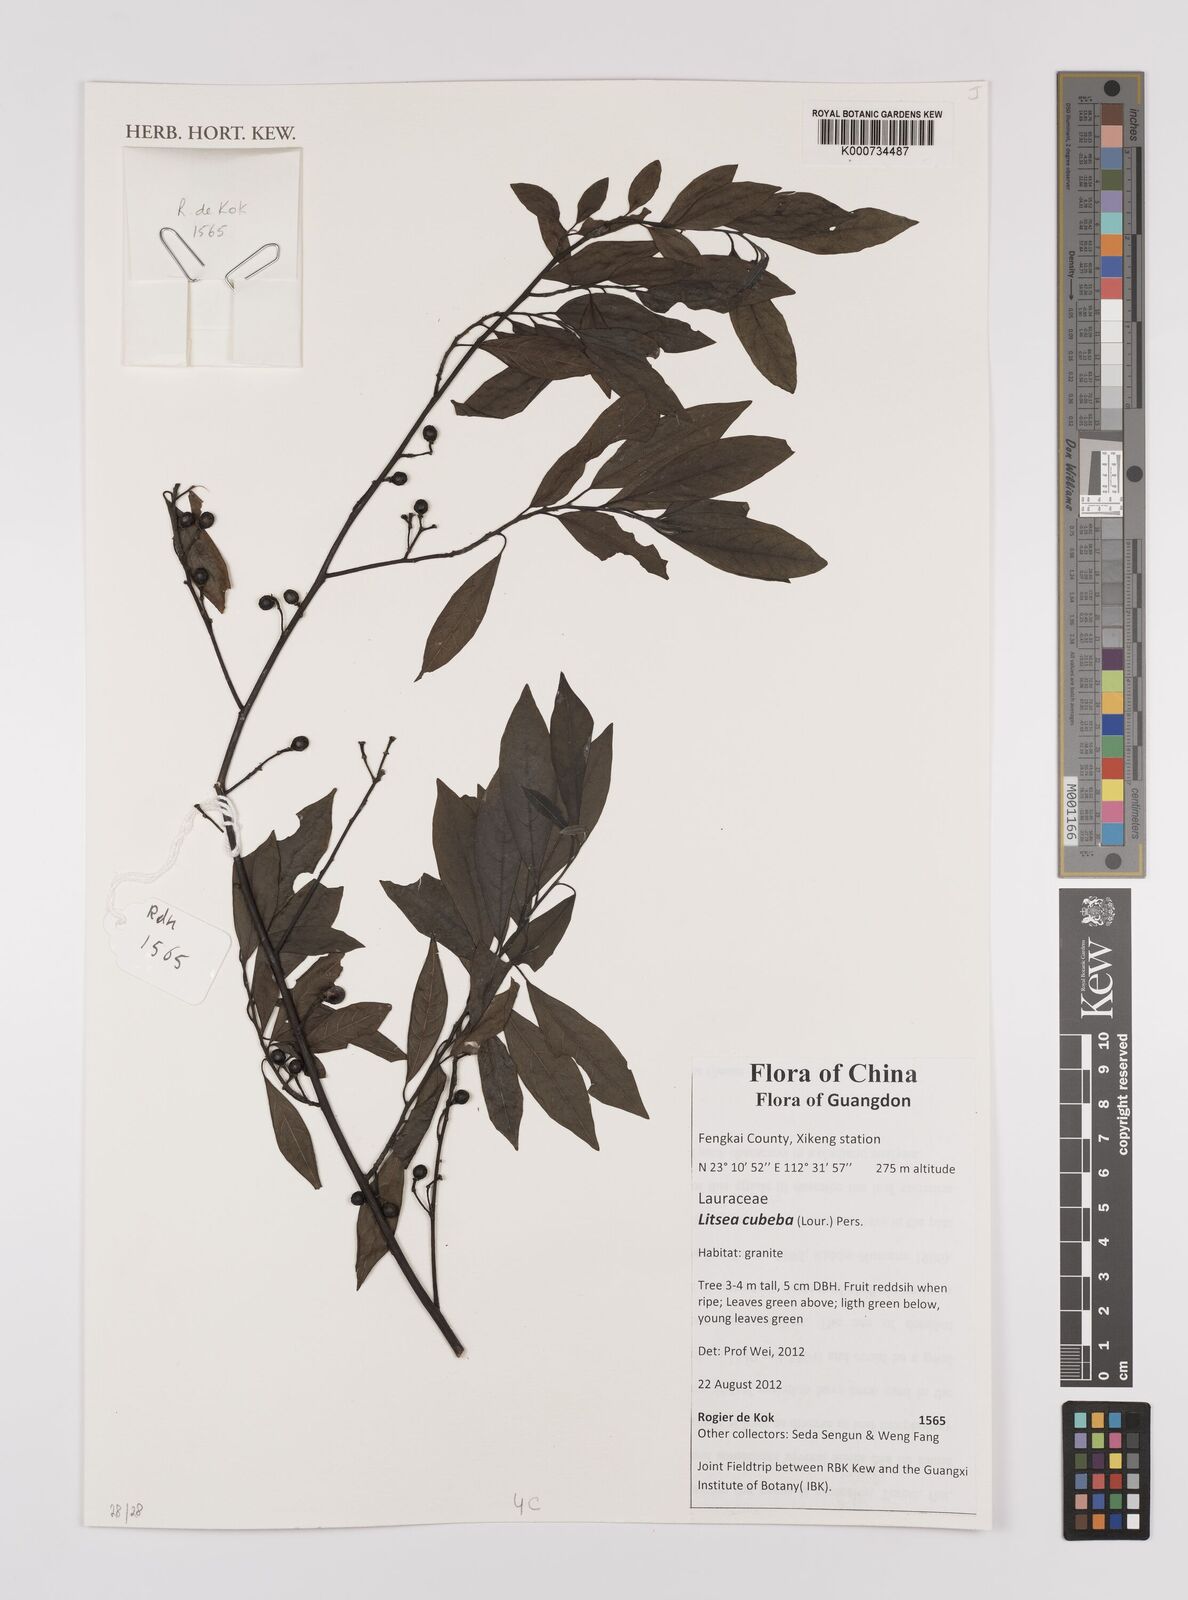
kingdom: Plantae
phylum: Tracheophyta
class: Magnoliopsida
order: Laurales
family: Lauraceae
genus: Litsea
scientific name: Litsea cubeba
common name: Mountain-pepper
